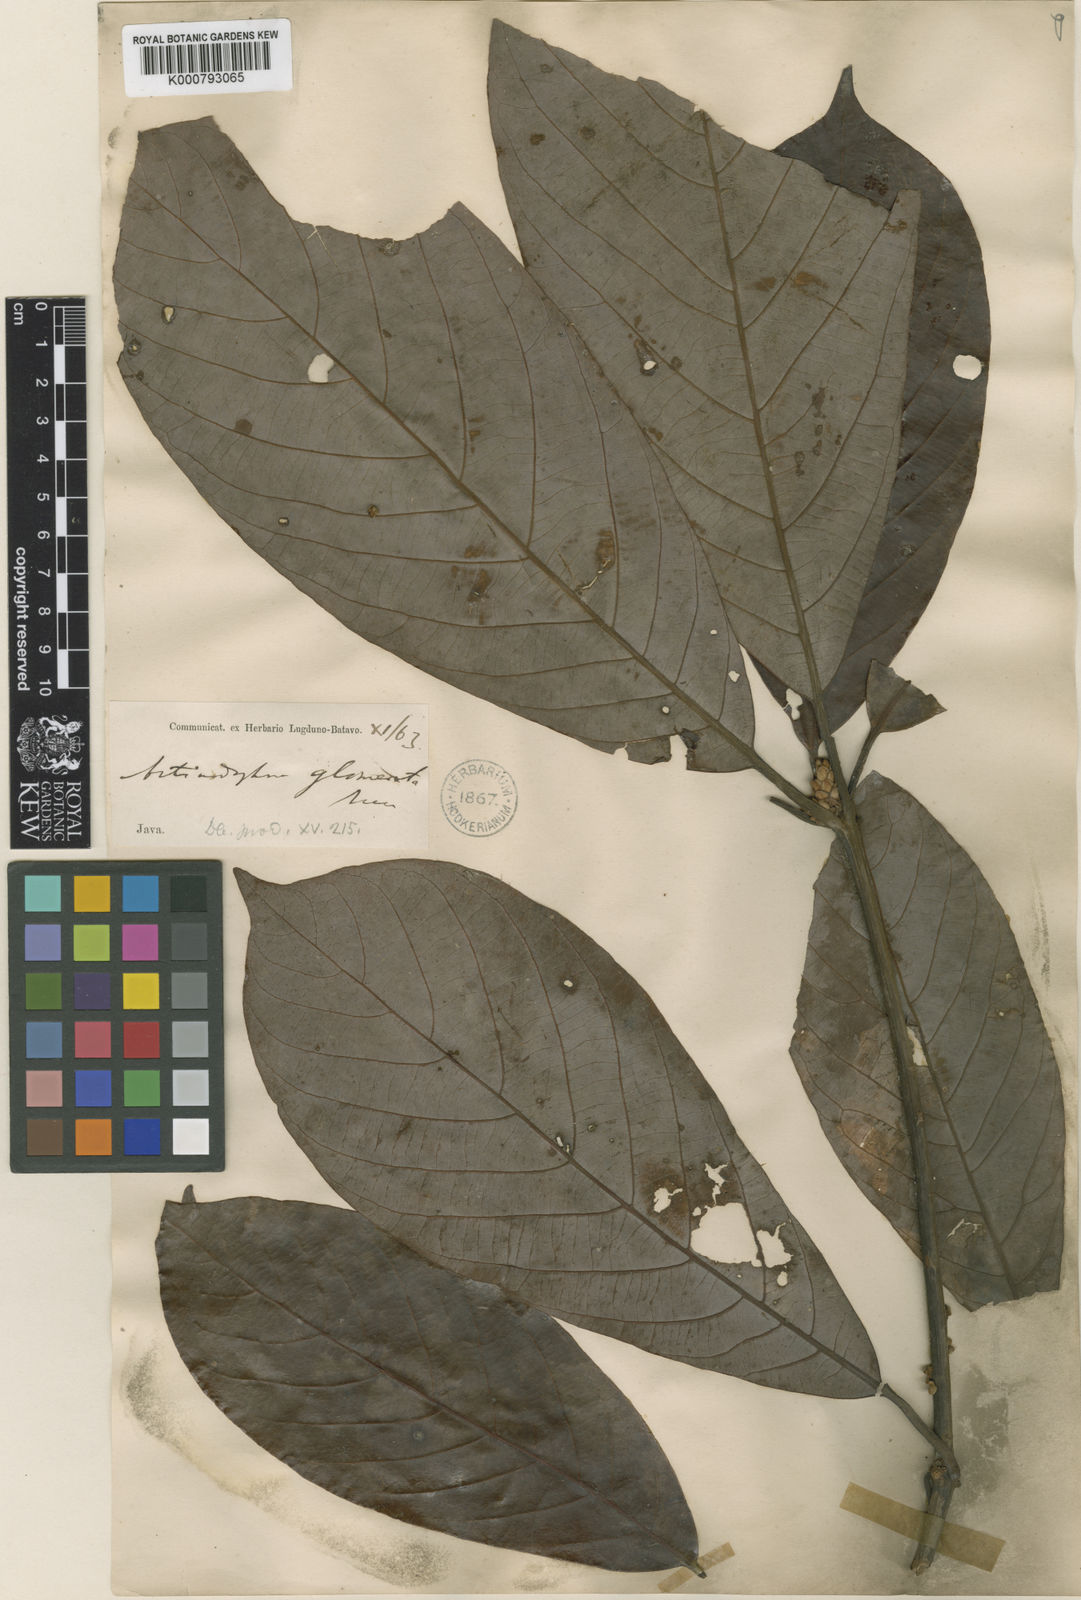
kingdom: Plantae
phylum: Tracheophyta
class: Magnoliopsida
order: Laurales
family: Lauraceae
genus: Actinodaphne
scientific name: Actinodaphne glomerata
